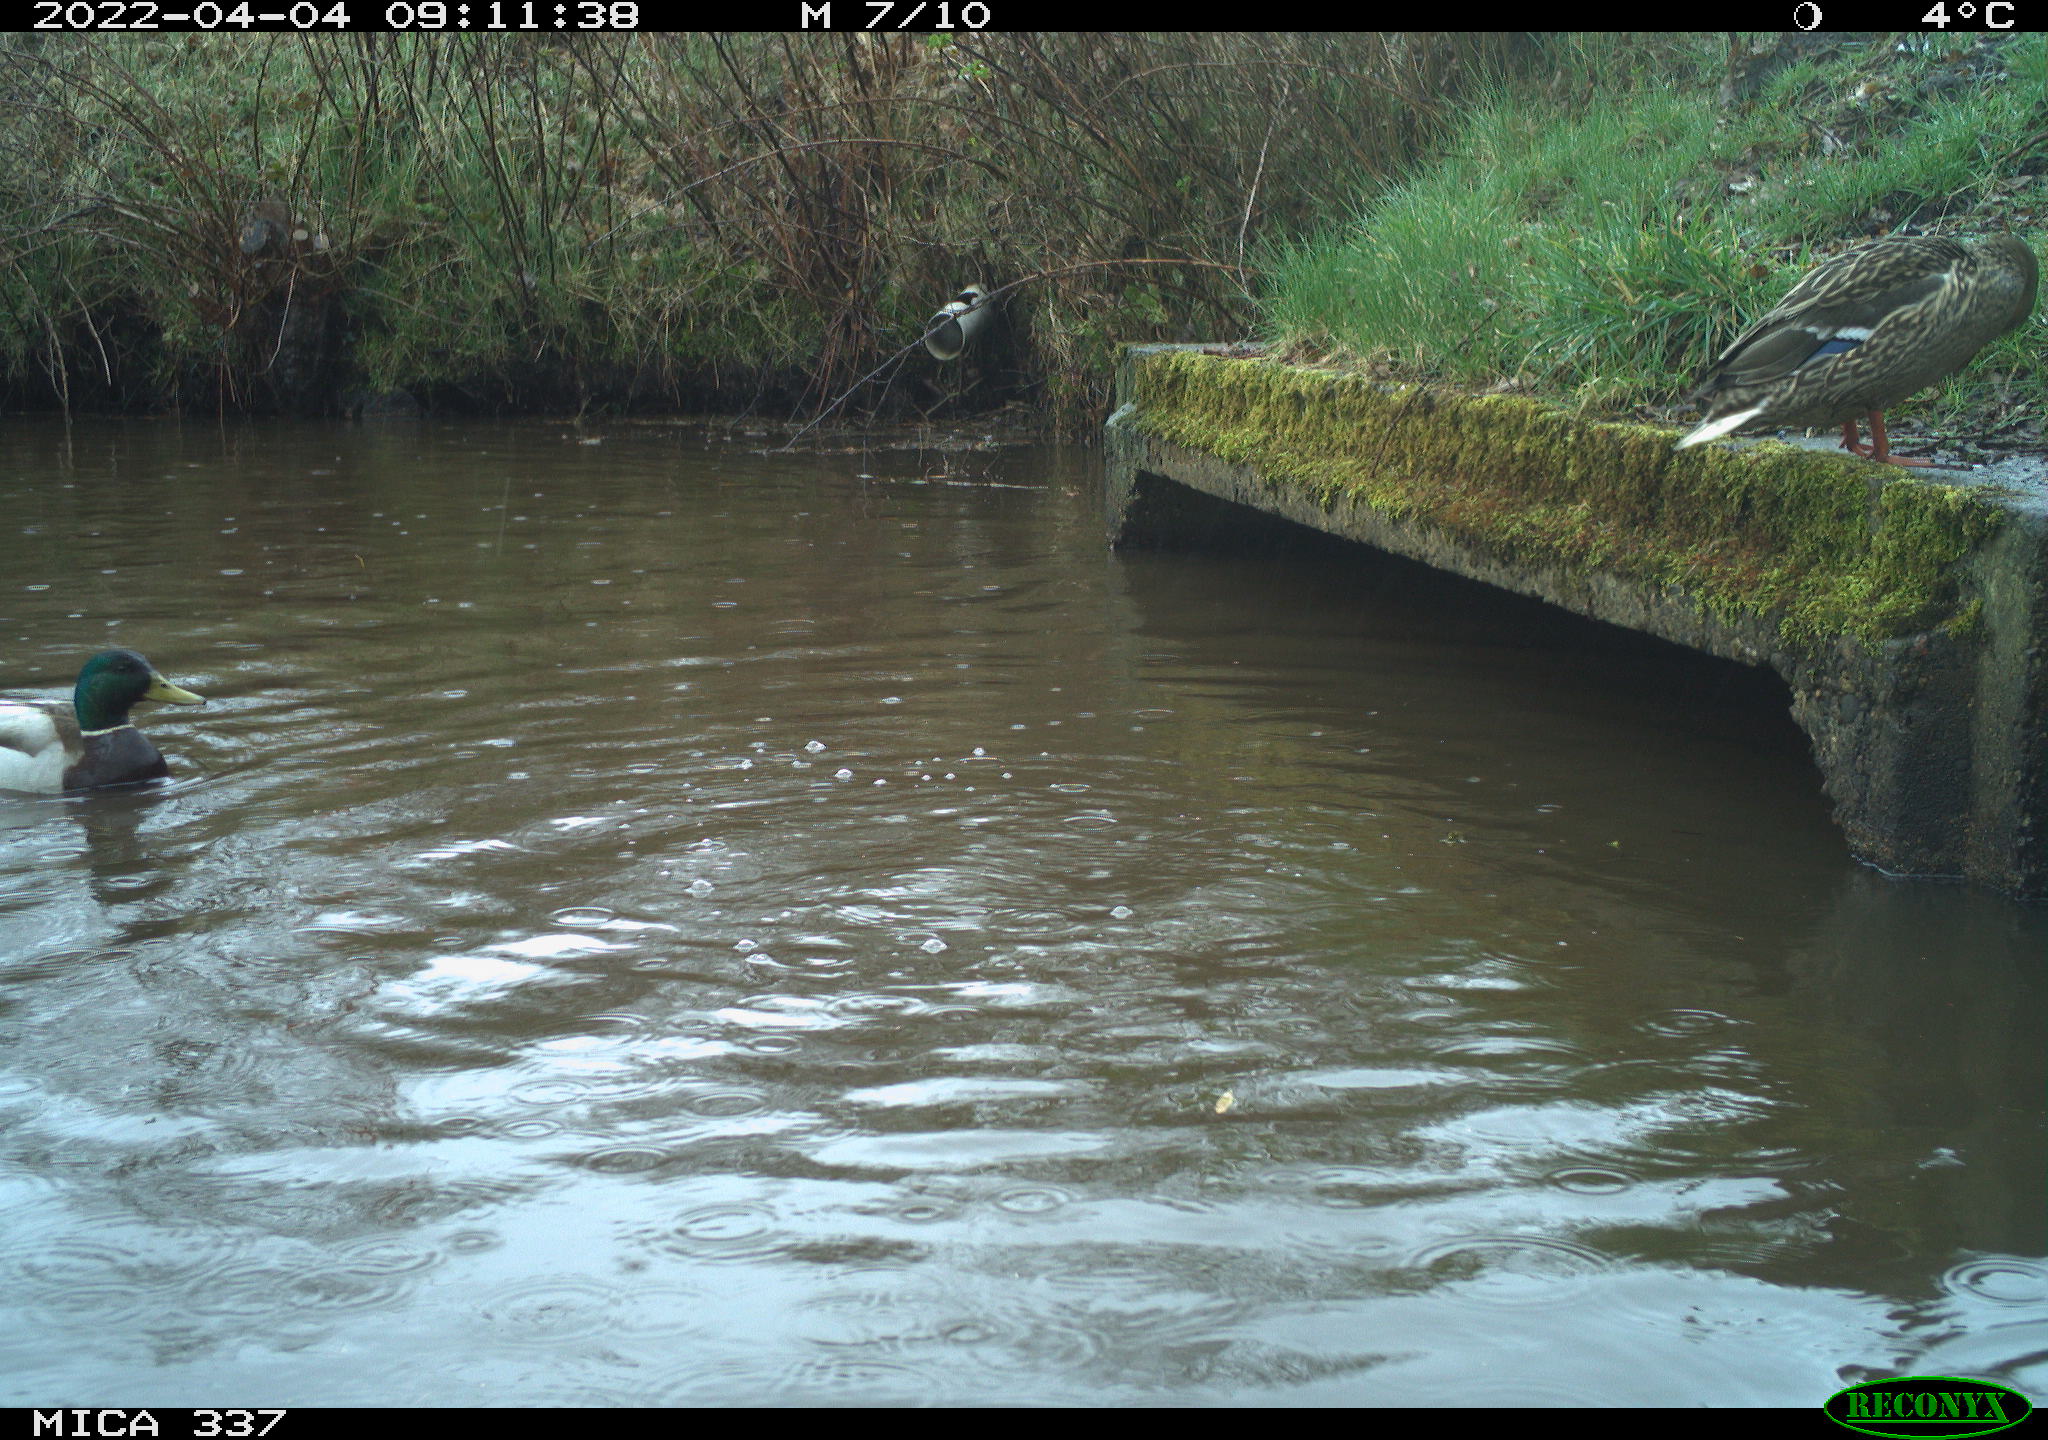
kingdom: Animalia
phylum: Chordata
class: Aves
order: Anseriformes
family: Anatidae
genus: Anas
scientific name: Anas platyrhynchos
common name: Mallard
